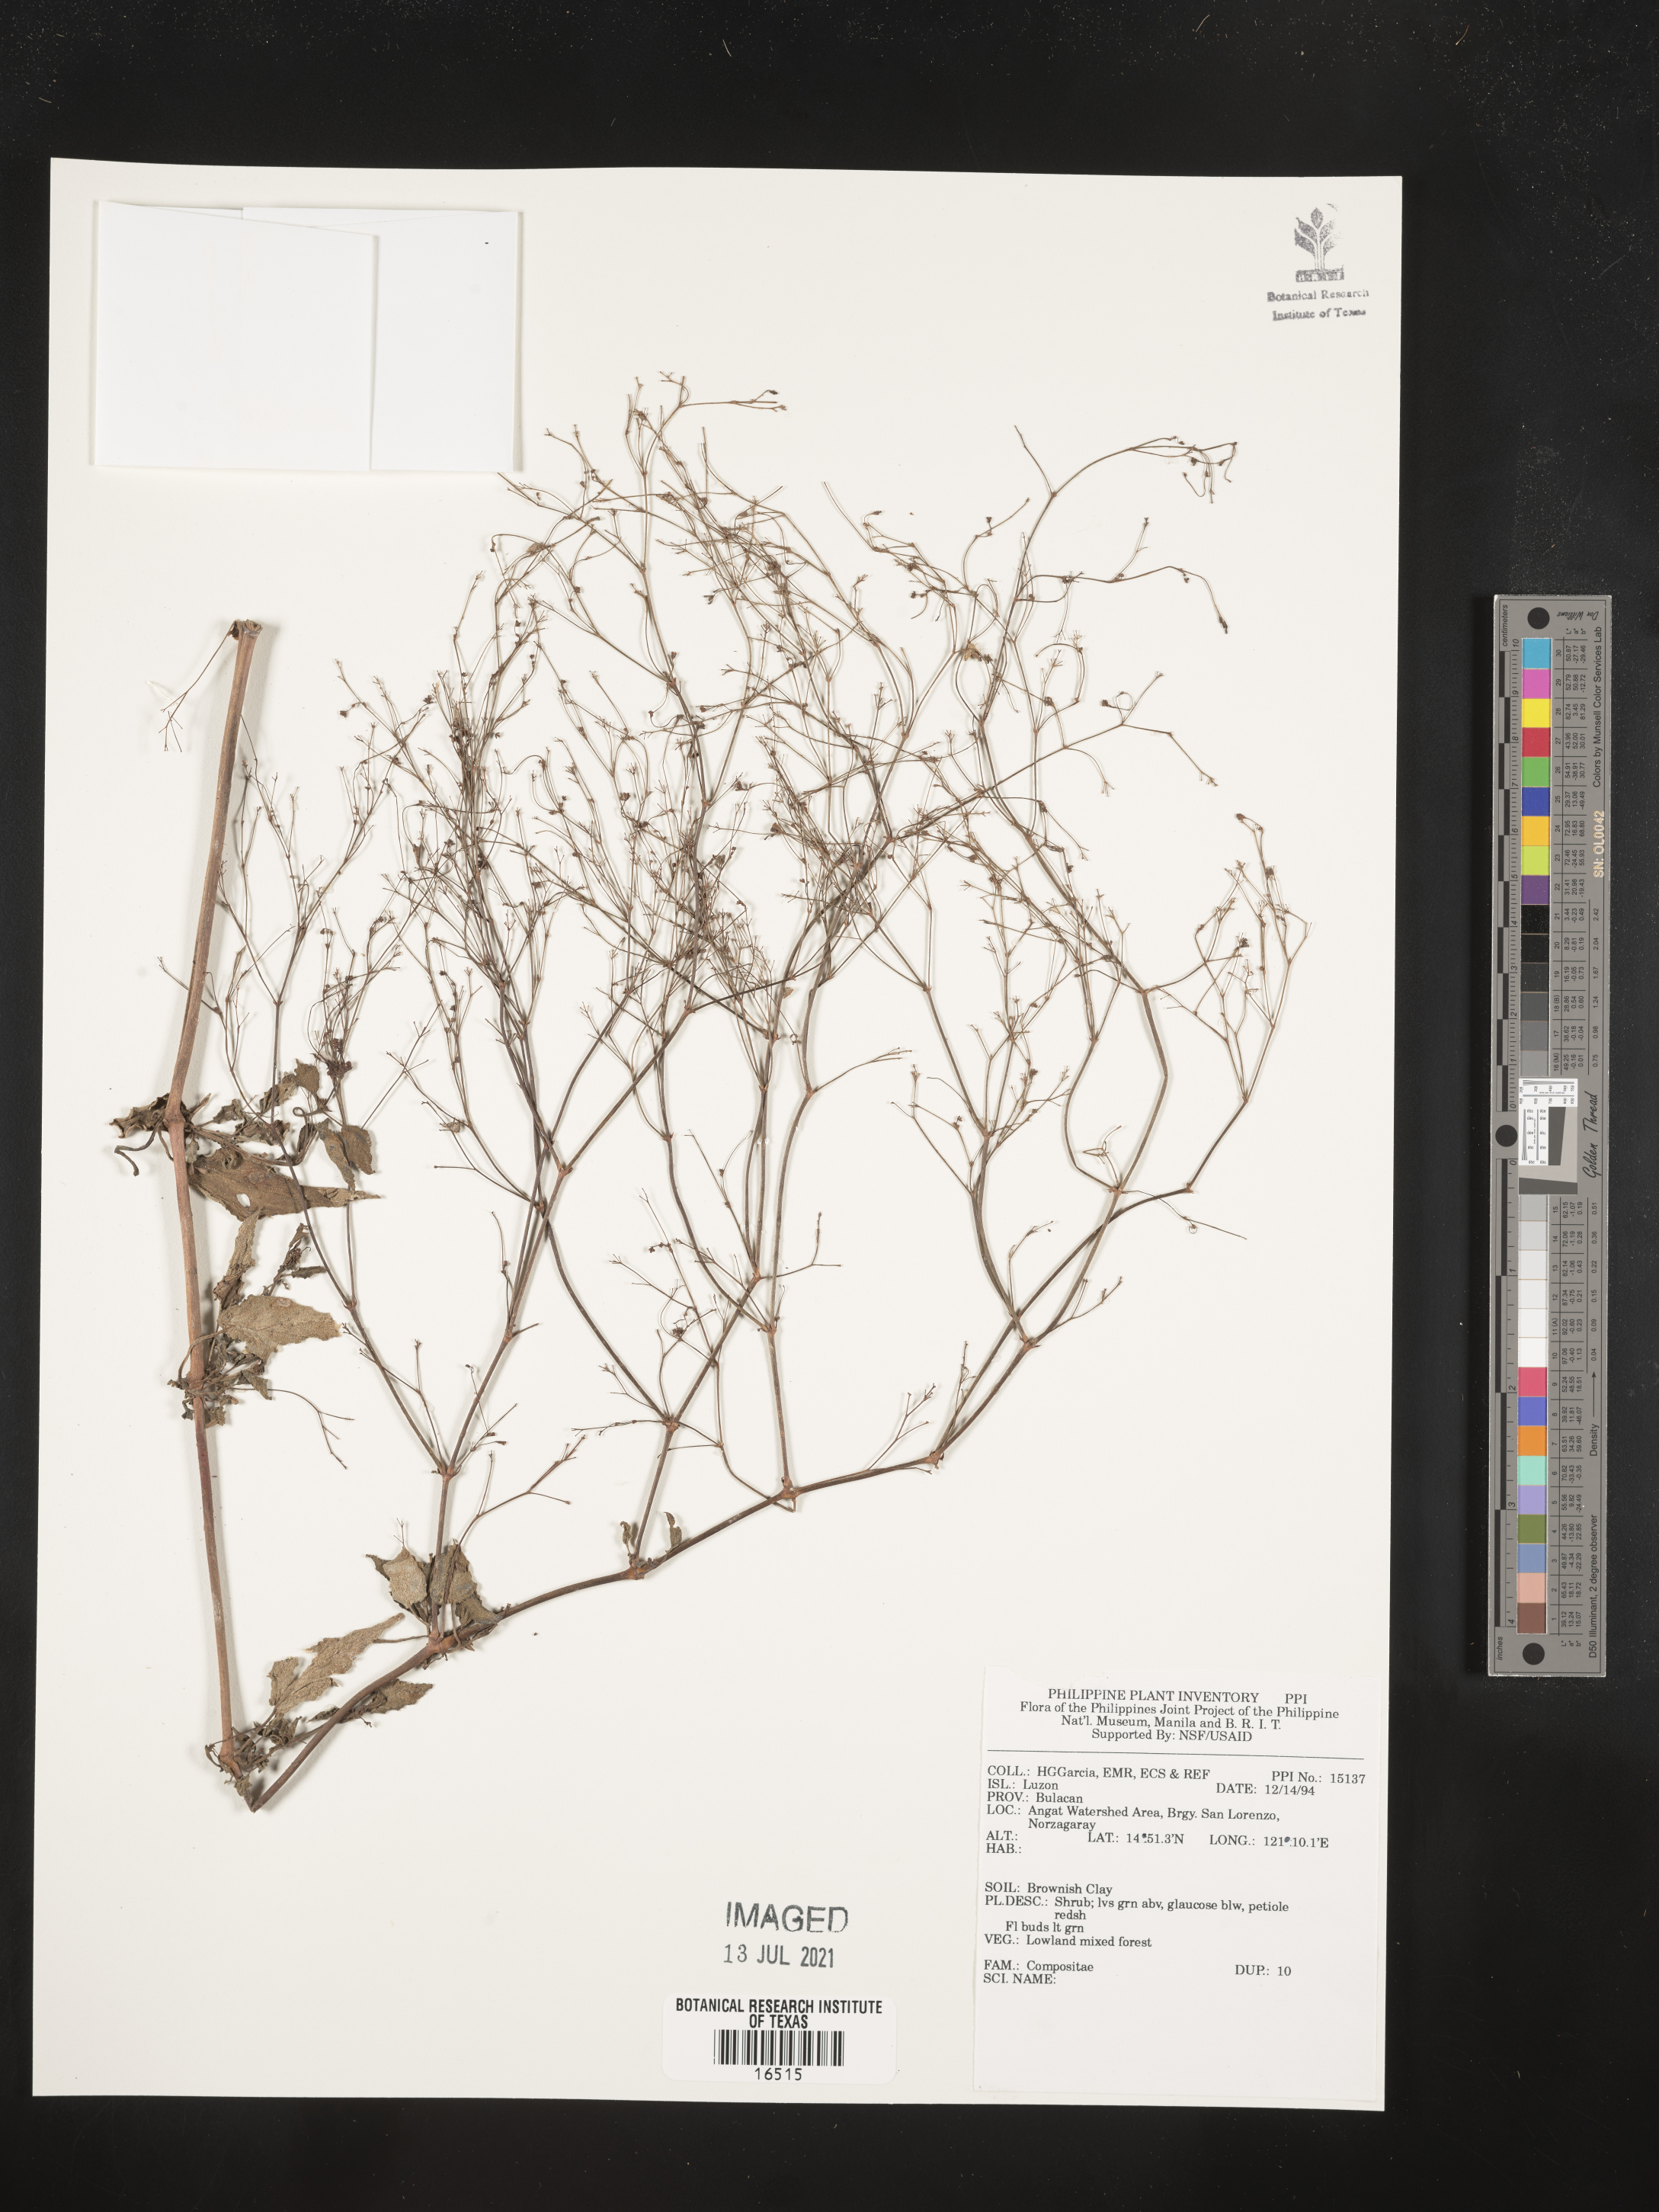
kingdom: Plantae
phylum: Tracheophyta
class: Magnoliopsida
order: Asterales
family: Asteraceae
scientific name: Asteraceae
